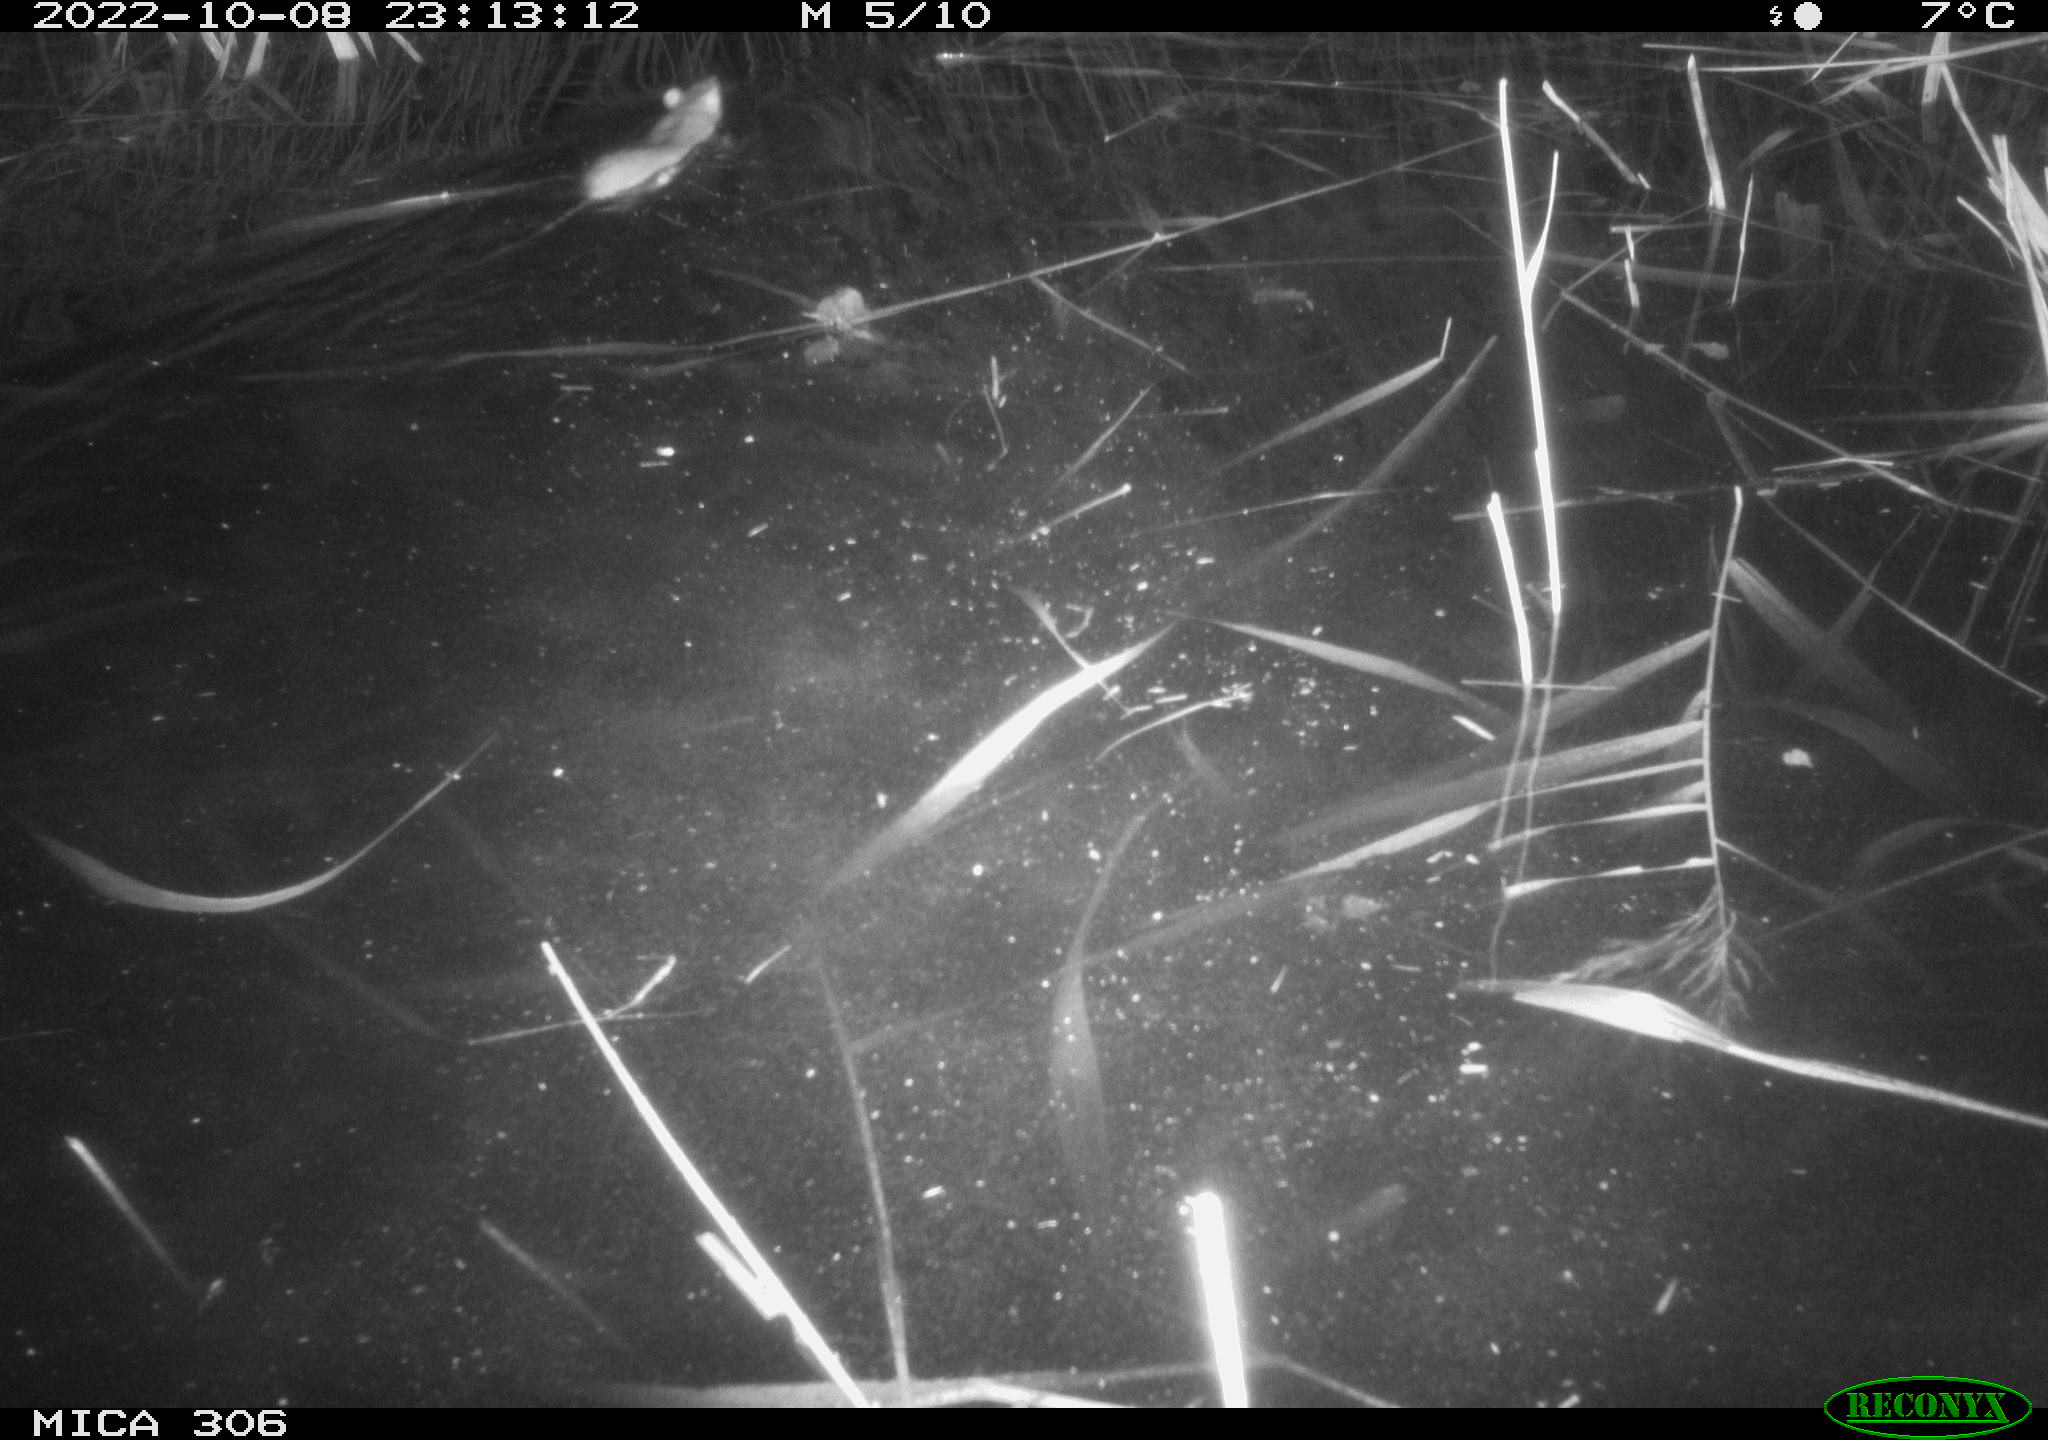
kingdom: Animalia
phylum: Chordata
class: Mammalia
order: Rodentia
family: Muridae
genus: Rattus
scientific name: Rattus norvegicus
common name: Brown rat
